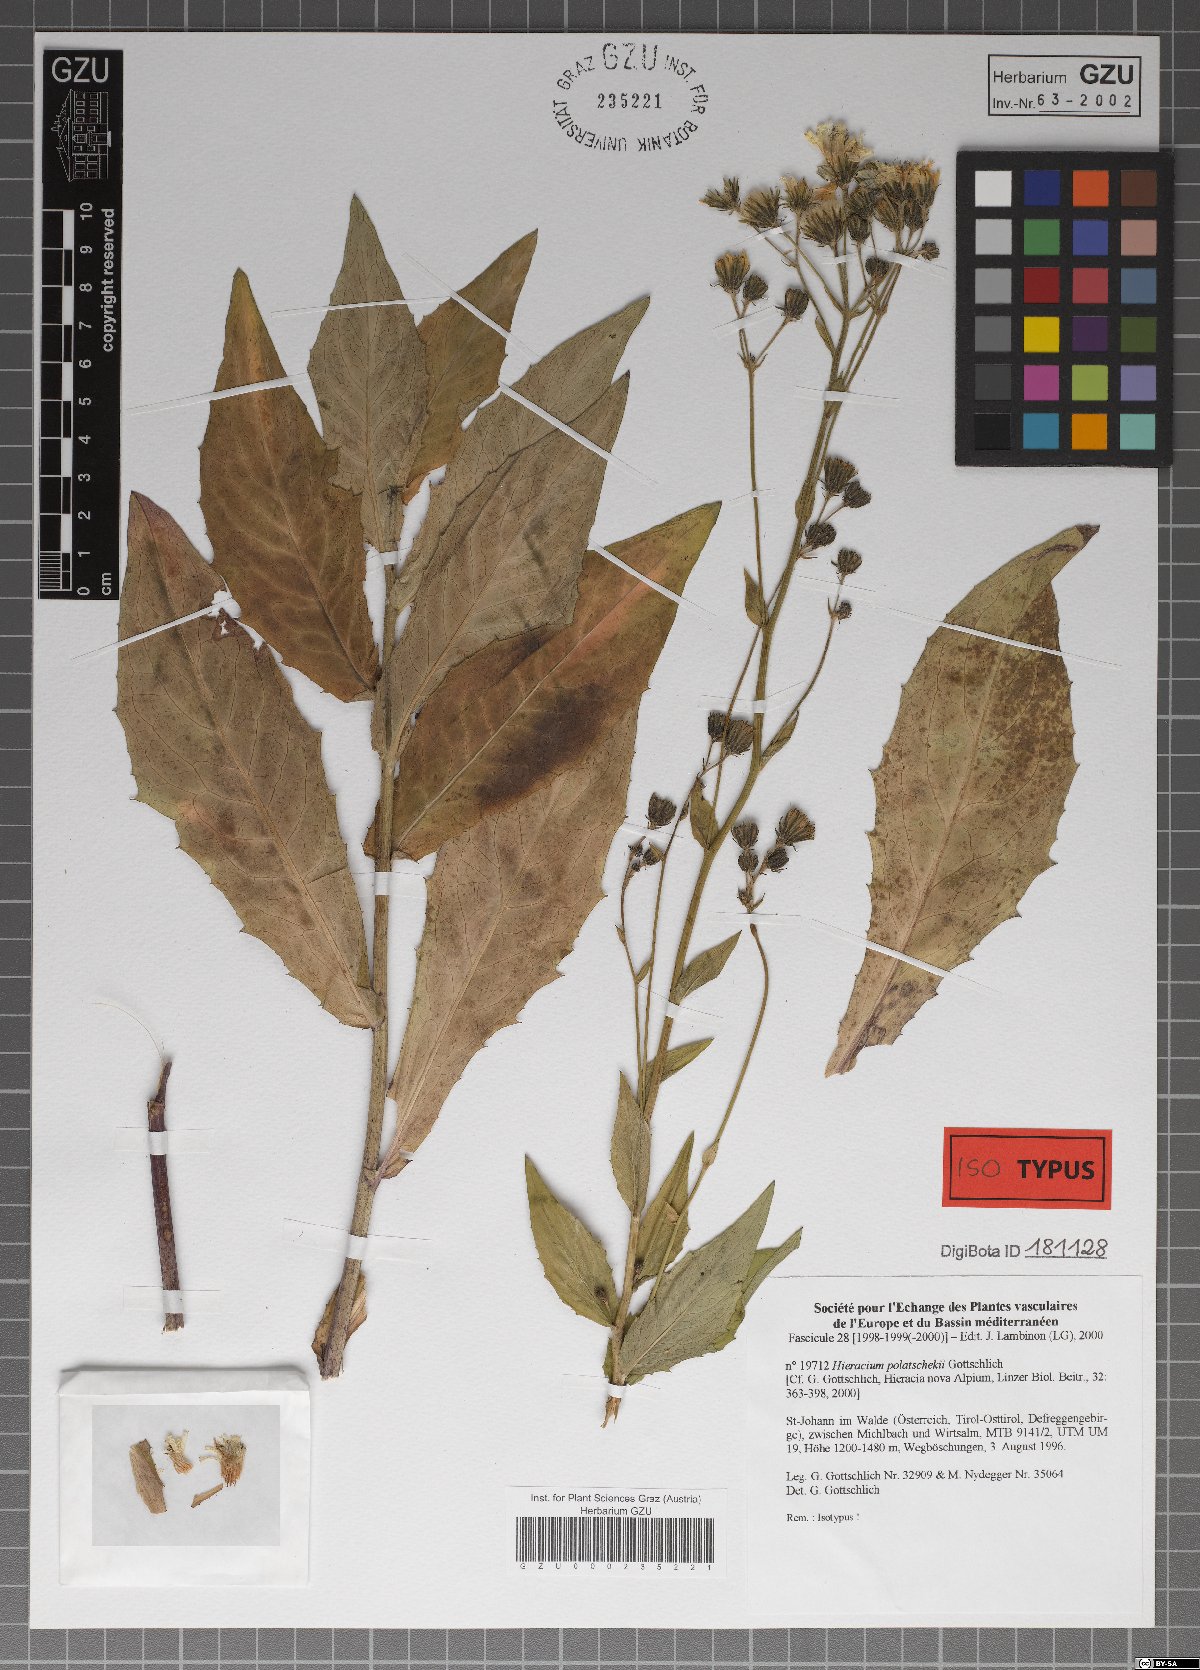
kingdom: Plantae
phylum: Tracheophyta
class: Magnoliopsida
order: Asterales
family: Asteraceae
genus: Hieracium
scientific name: Hieracium polatschekii
